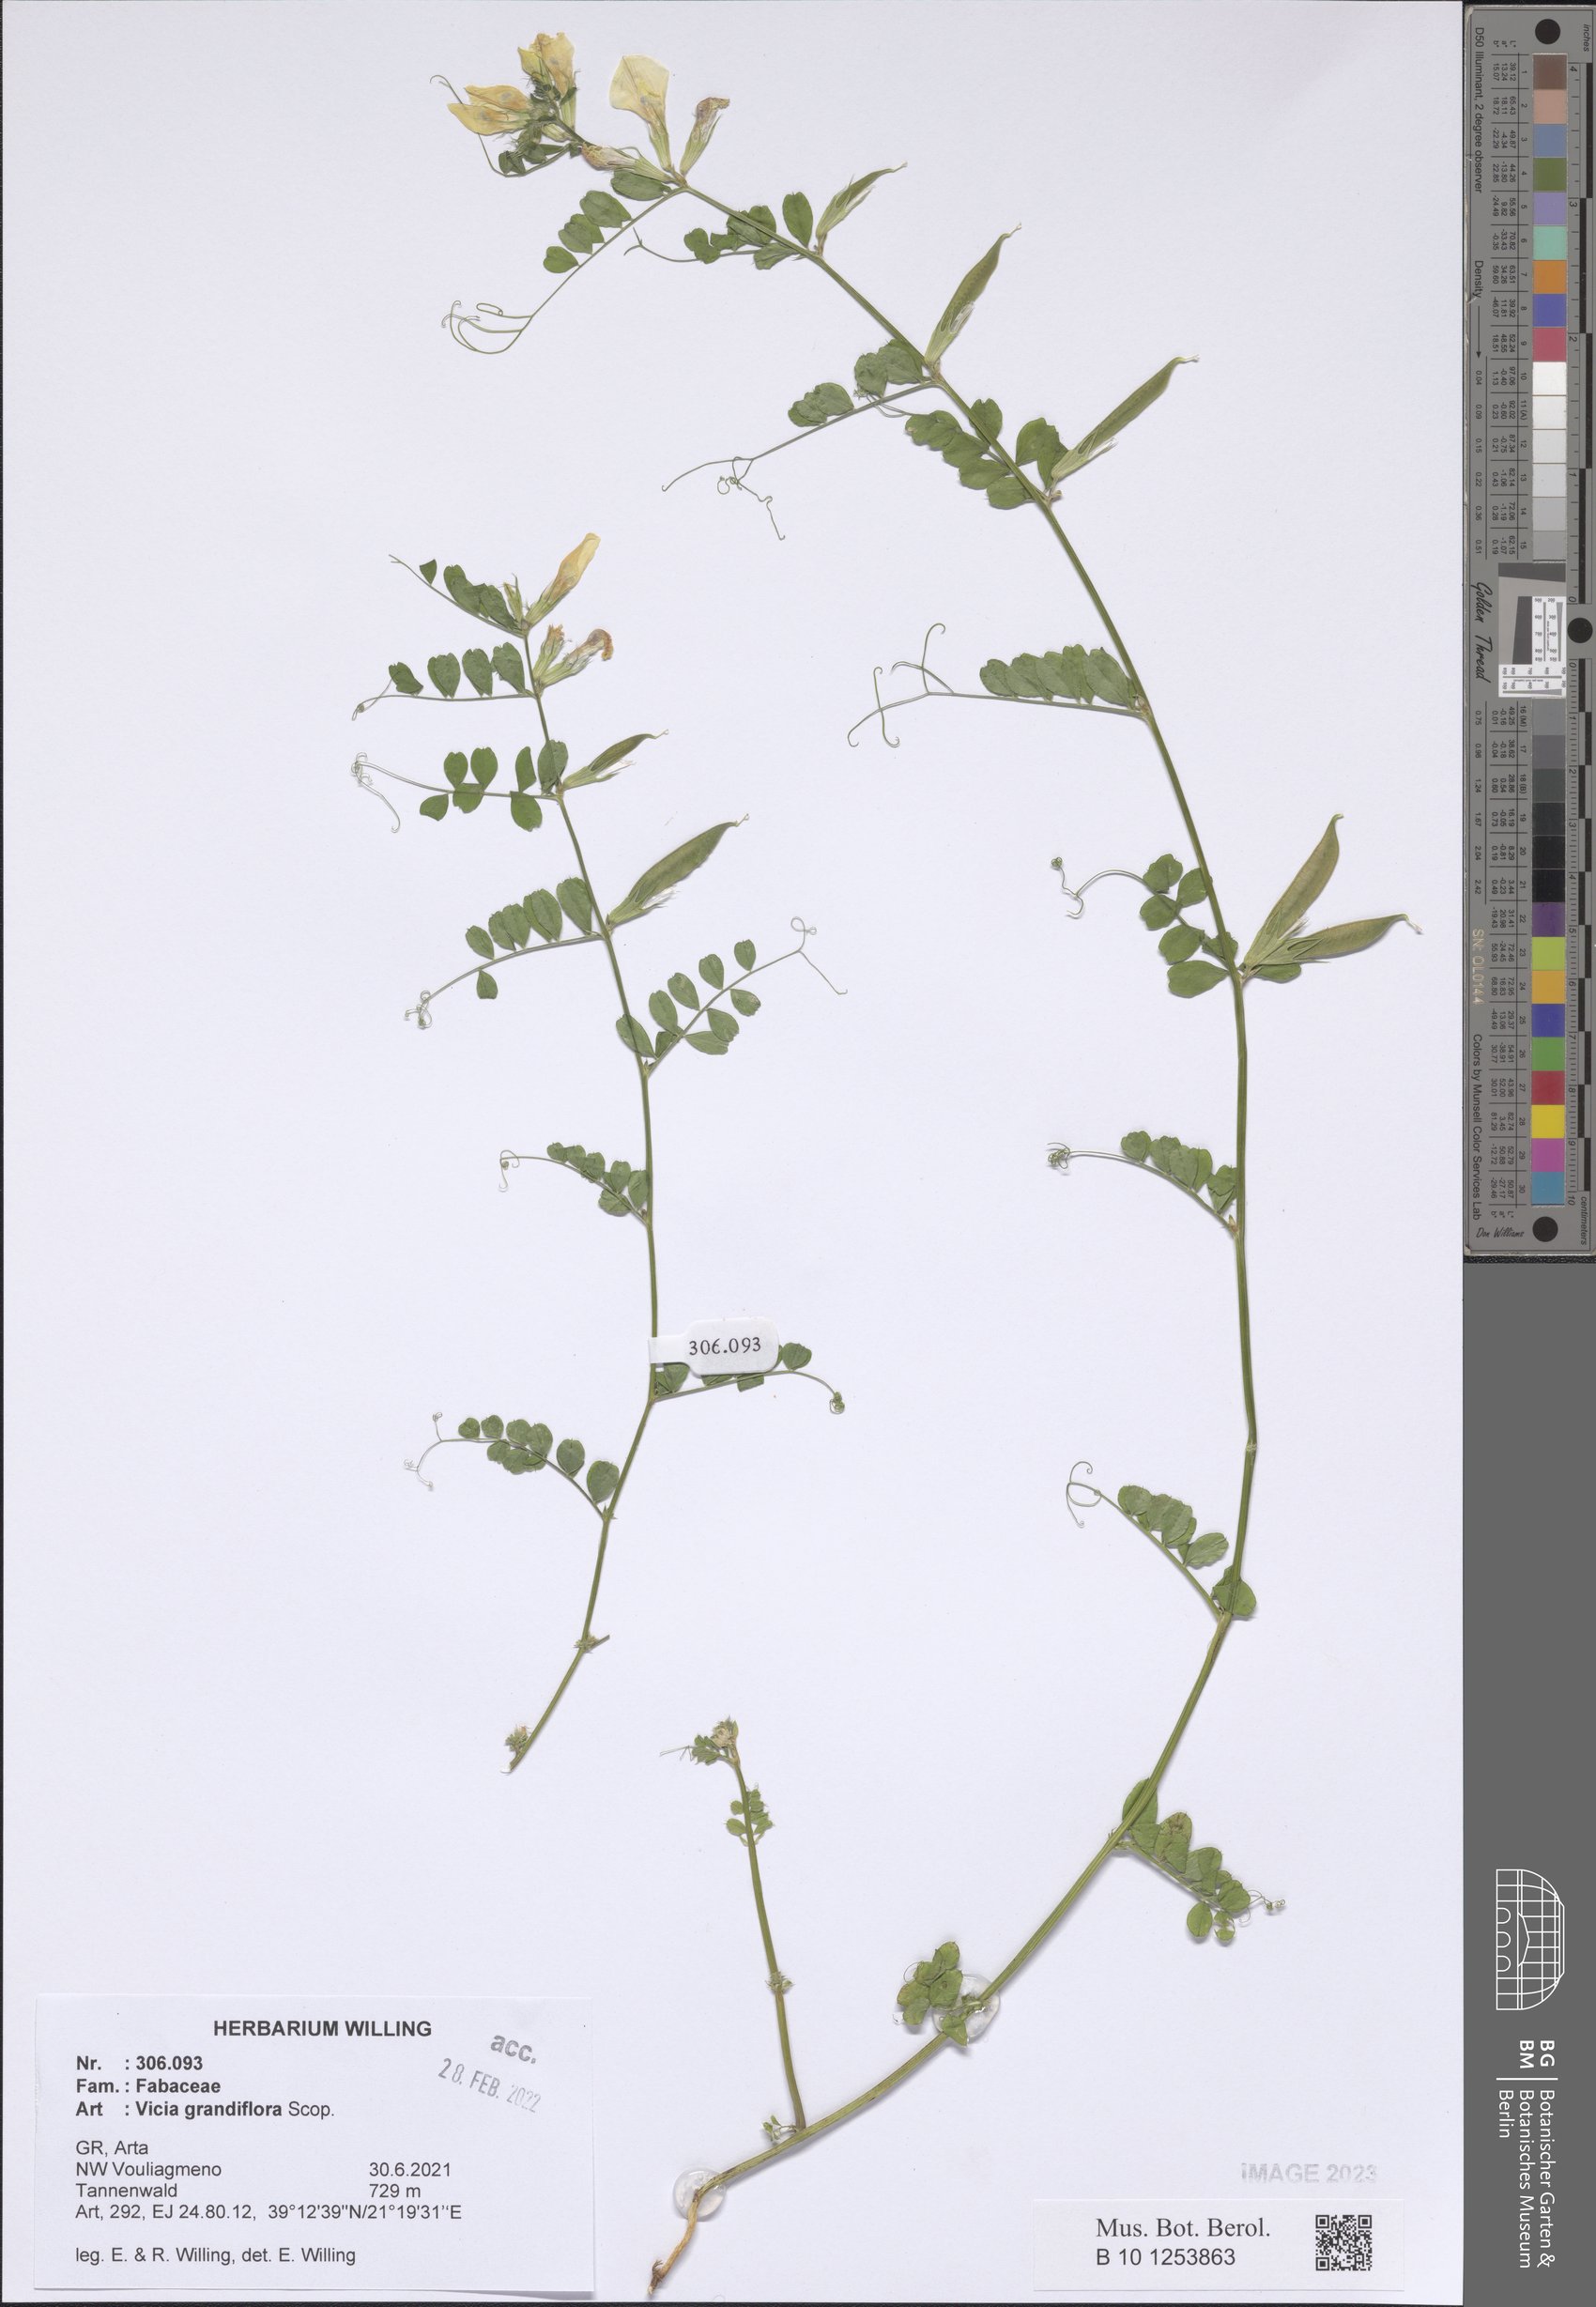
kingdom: Plantae
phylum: Tracheophyta
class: Magnoliopsida
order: Fabales
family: Fabaceae
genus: Vicia
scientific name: Vicia grandiflora
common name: Large yellow vetch
